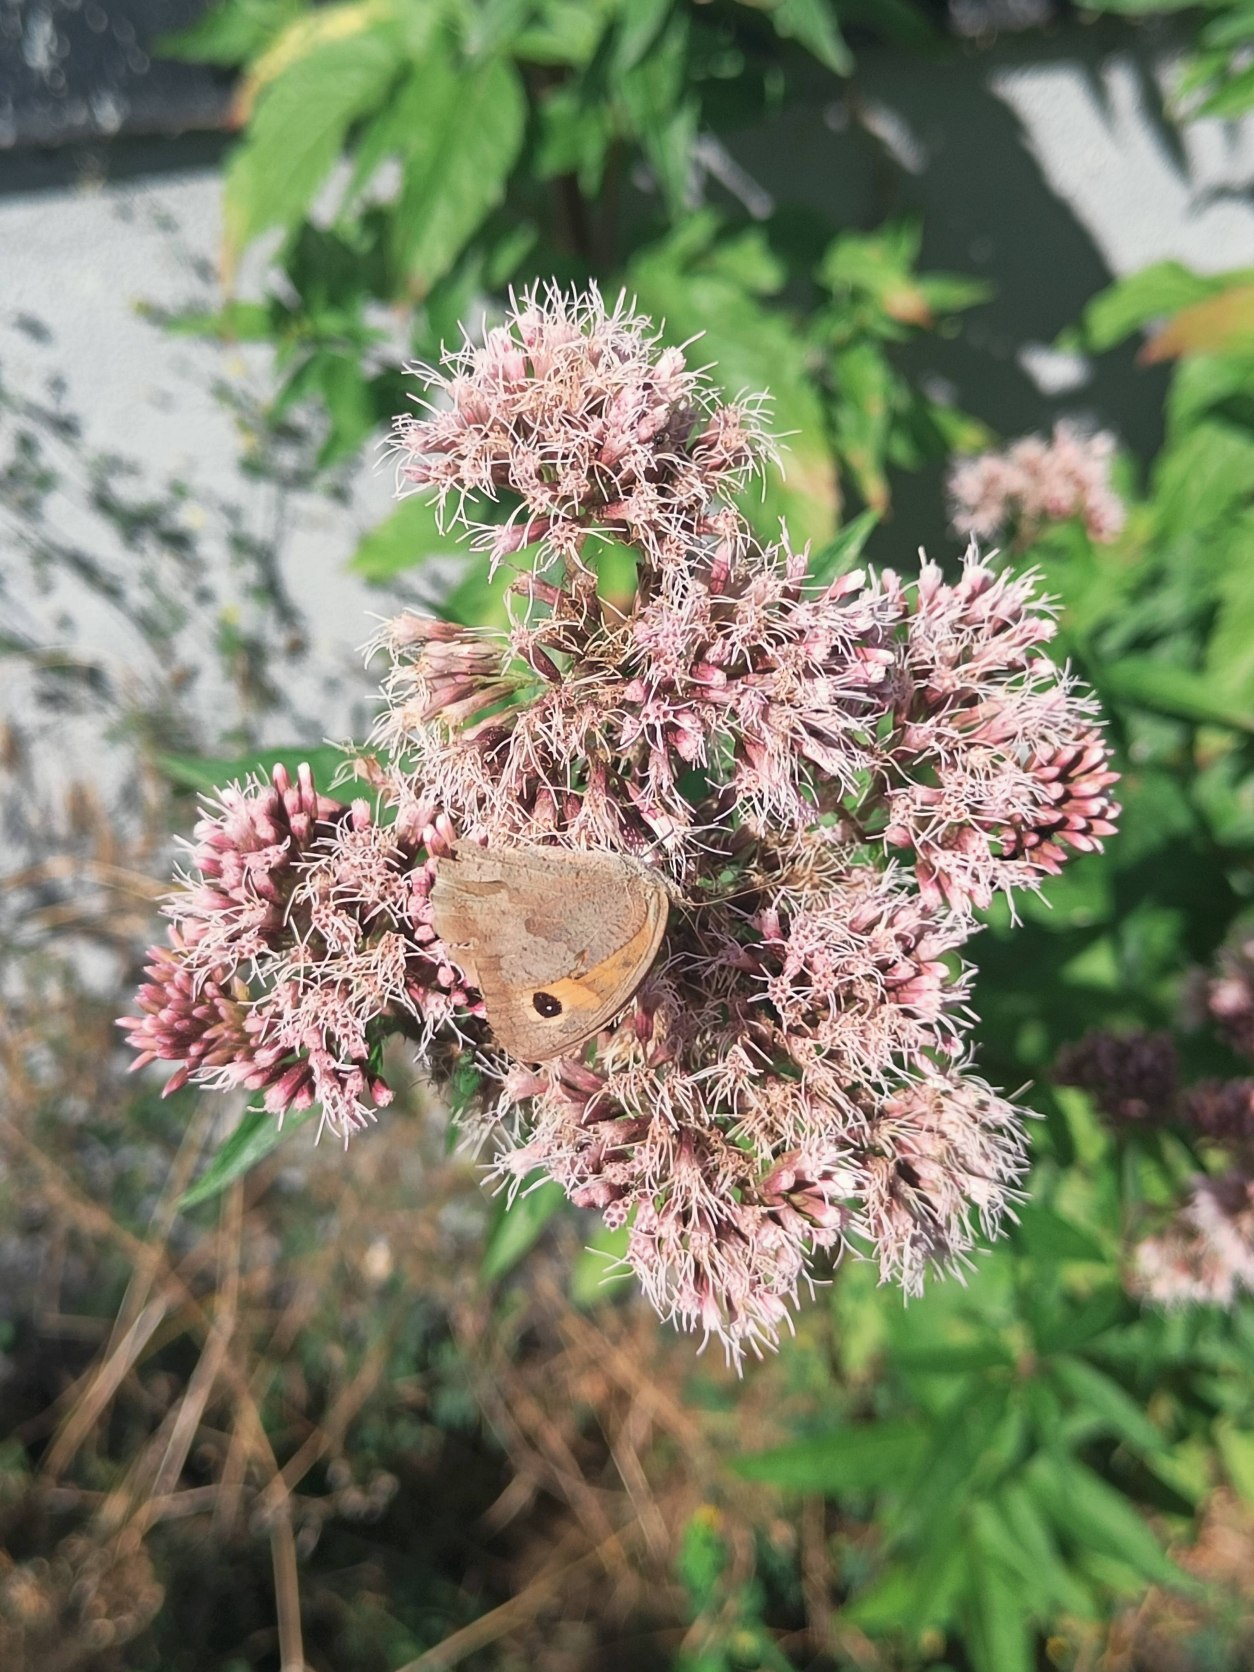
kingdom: Animalia
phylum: Arthropoda
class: Insecta
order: Lepidoptera
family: Nymphalidae
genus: Maniola
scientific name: Maniola jurtina
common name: Græsrandøje
